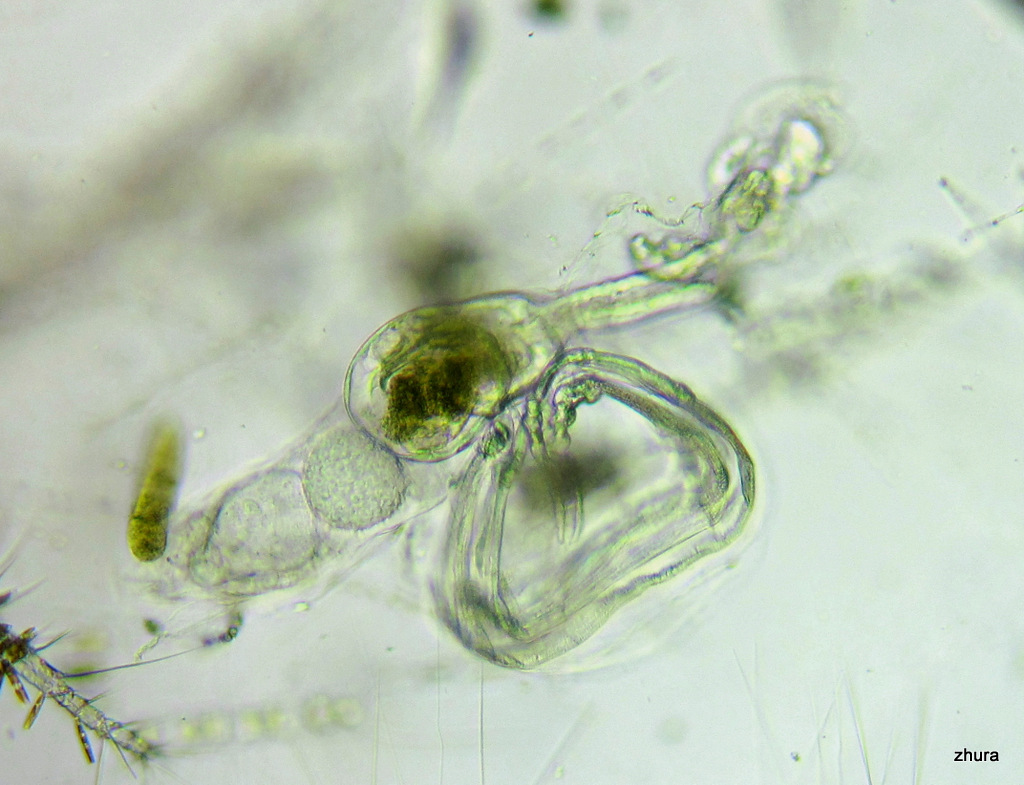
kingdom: Animalia
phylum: Chordata
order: Copelata
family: Fritillariidae
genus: Fritillaria
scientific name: Fritillaria borealis
